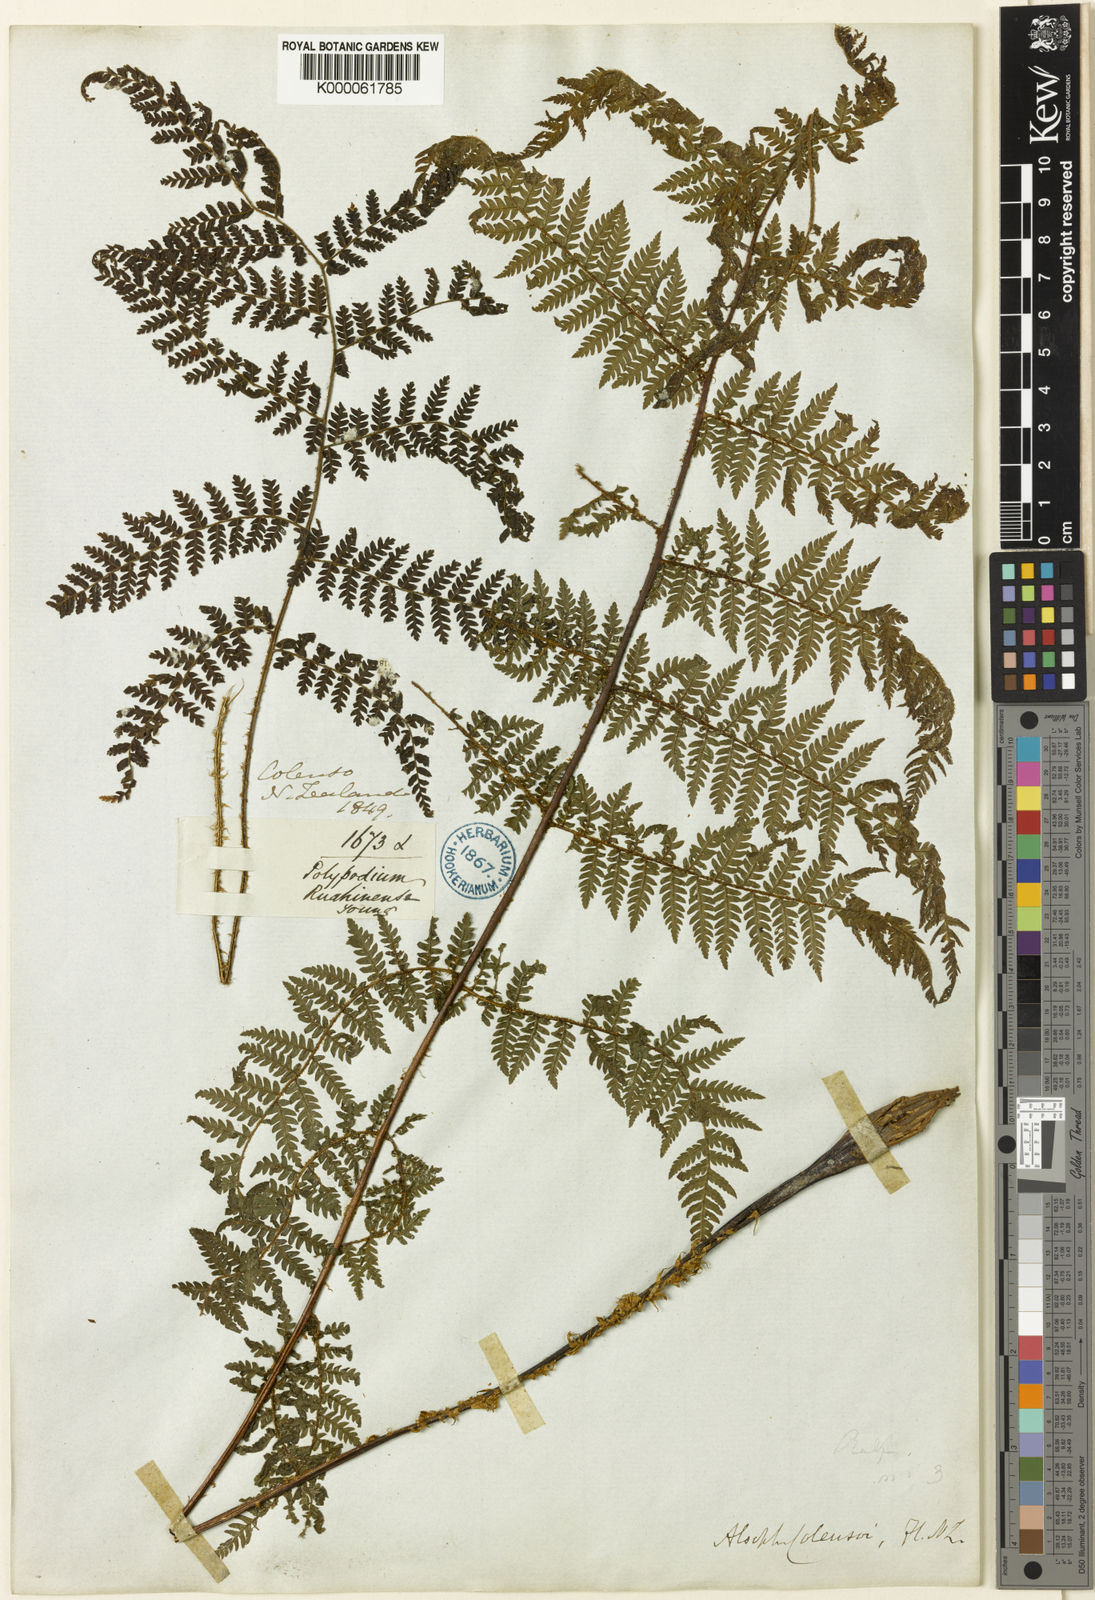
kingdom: Plantae
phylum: Tracheophyta
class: Polypodiopsida
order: Cyatheales
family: Cyatheaceae
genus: Alsophila
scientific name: Alsophila colensoi
